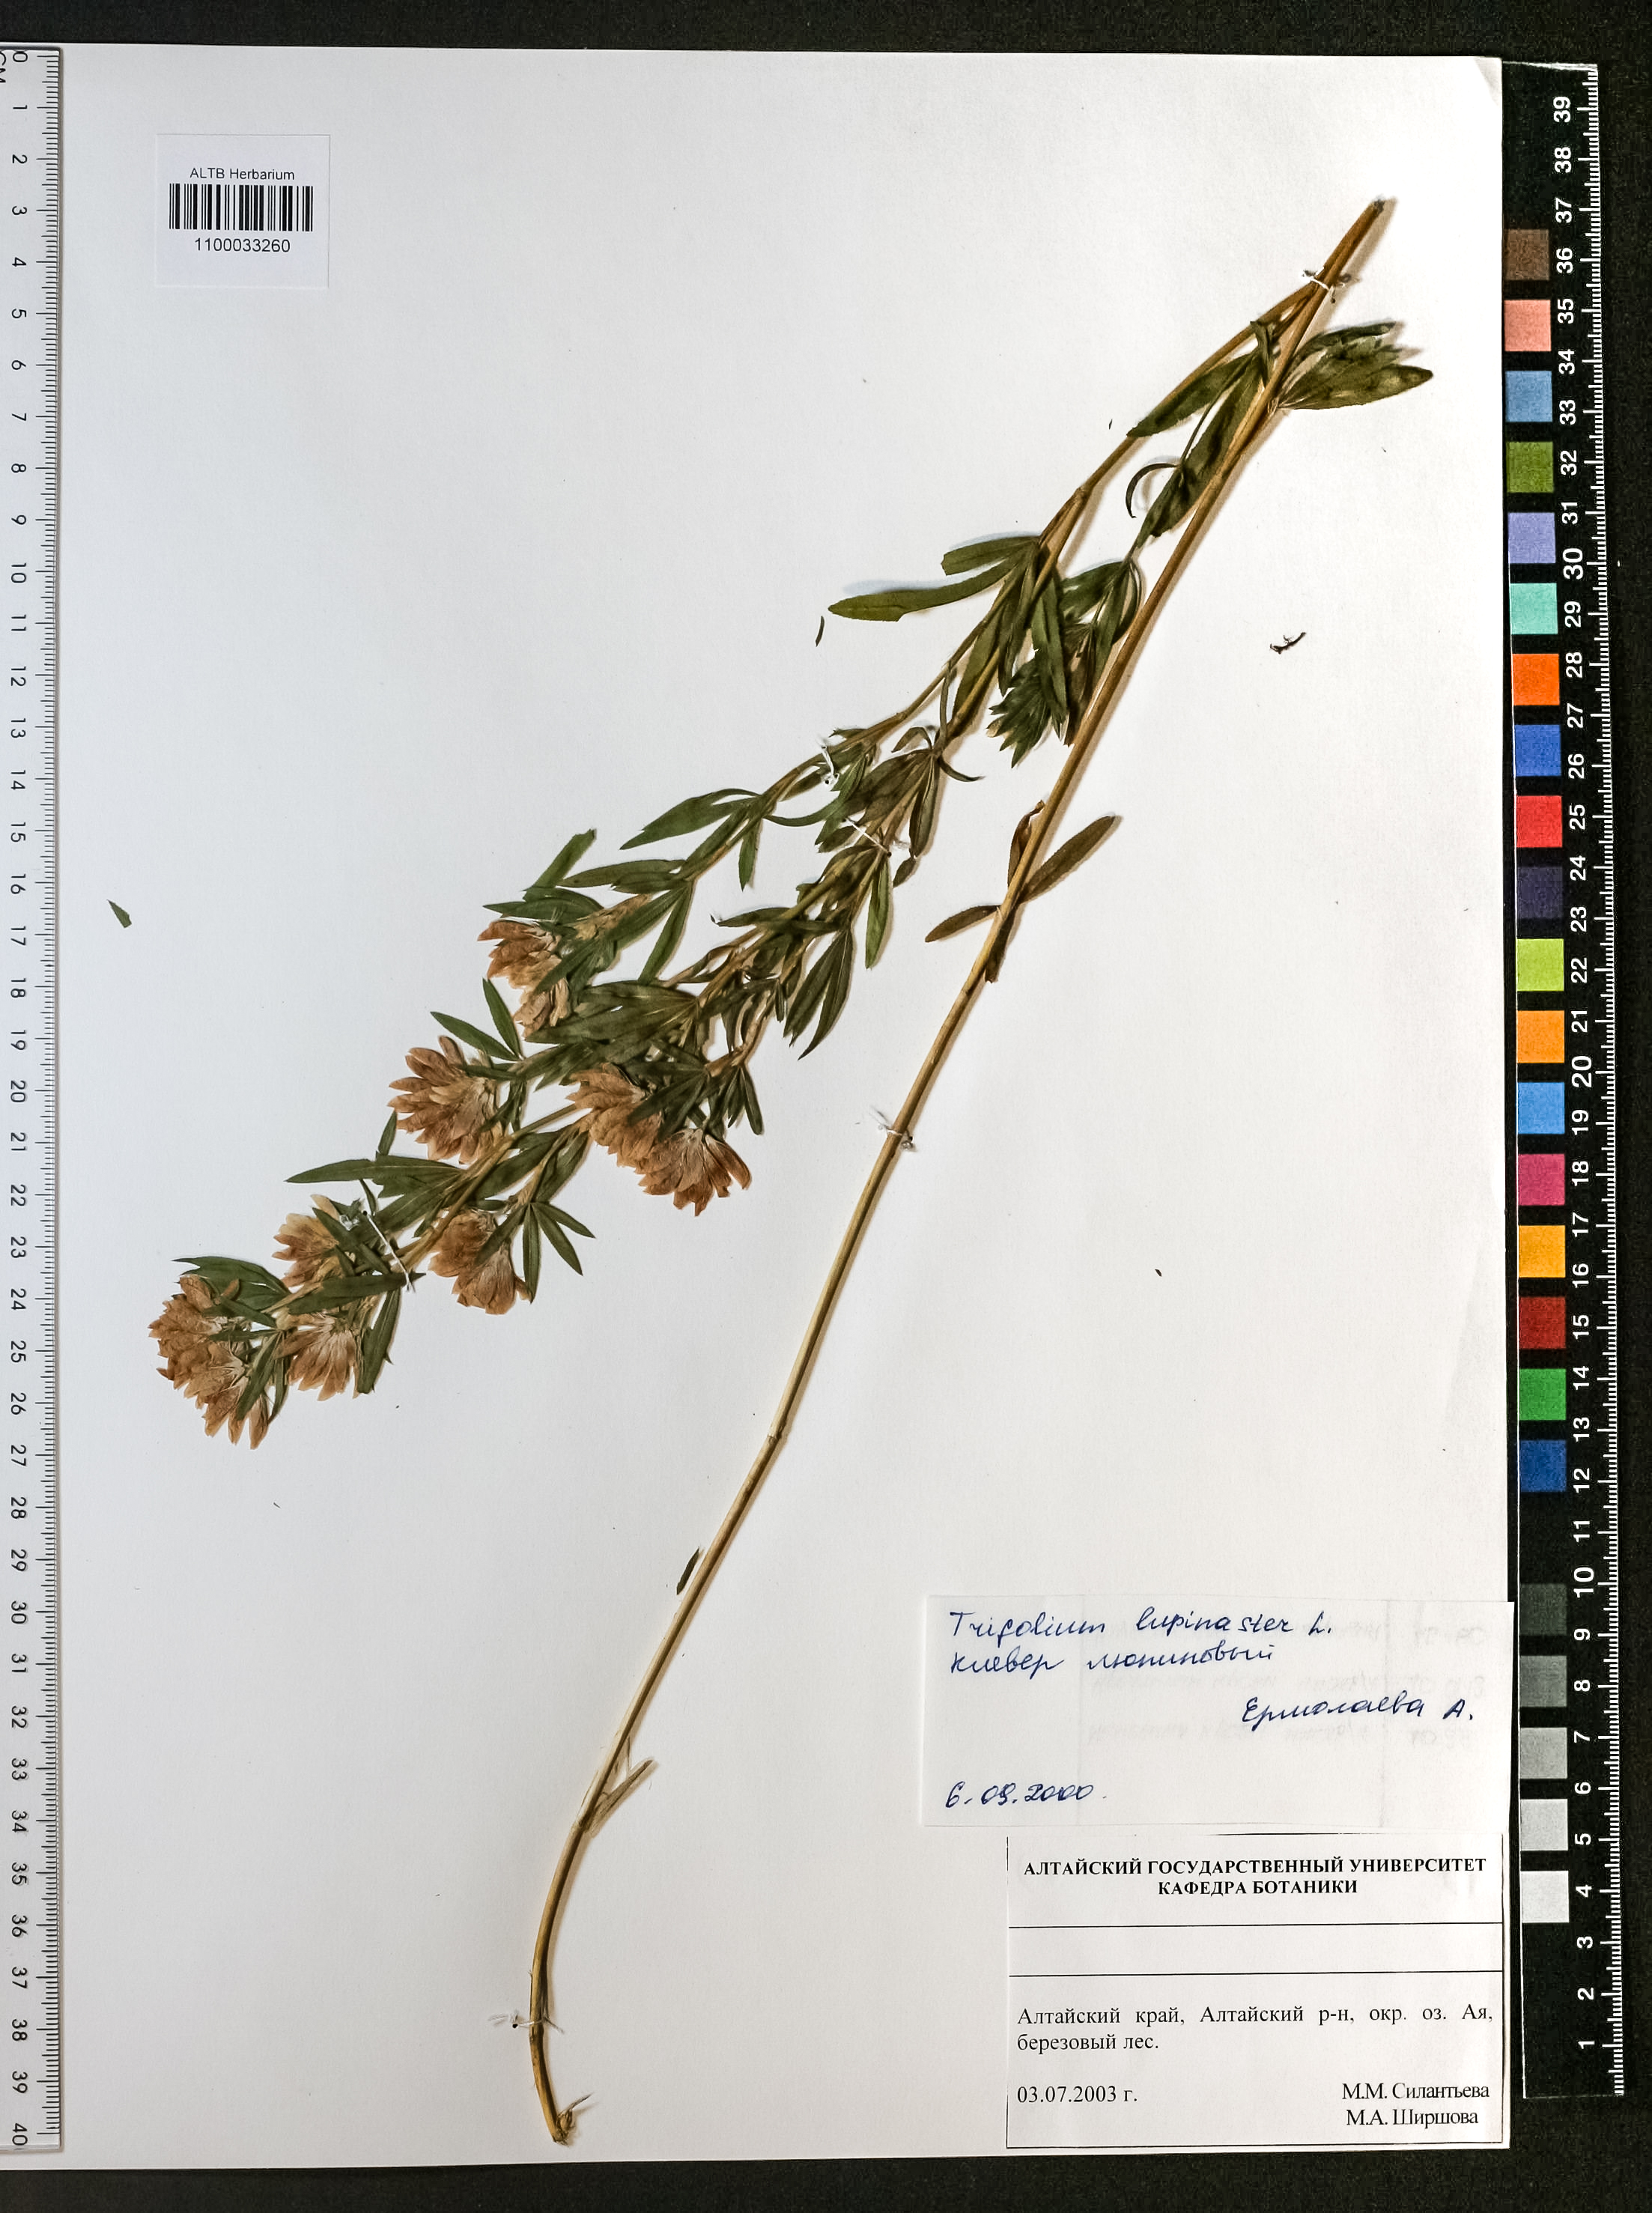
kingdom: Plantae
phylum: Tracheophyta
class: Magnoliopsida
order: Fabales
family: Fabaceae
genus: Trifolium
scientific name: Trifolium lupinaster
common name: Lupine clover
